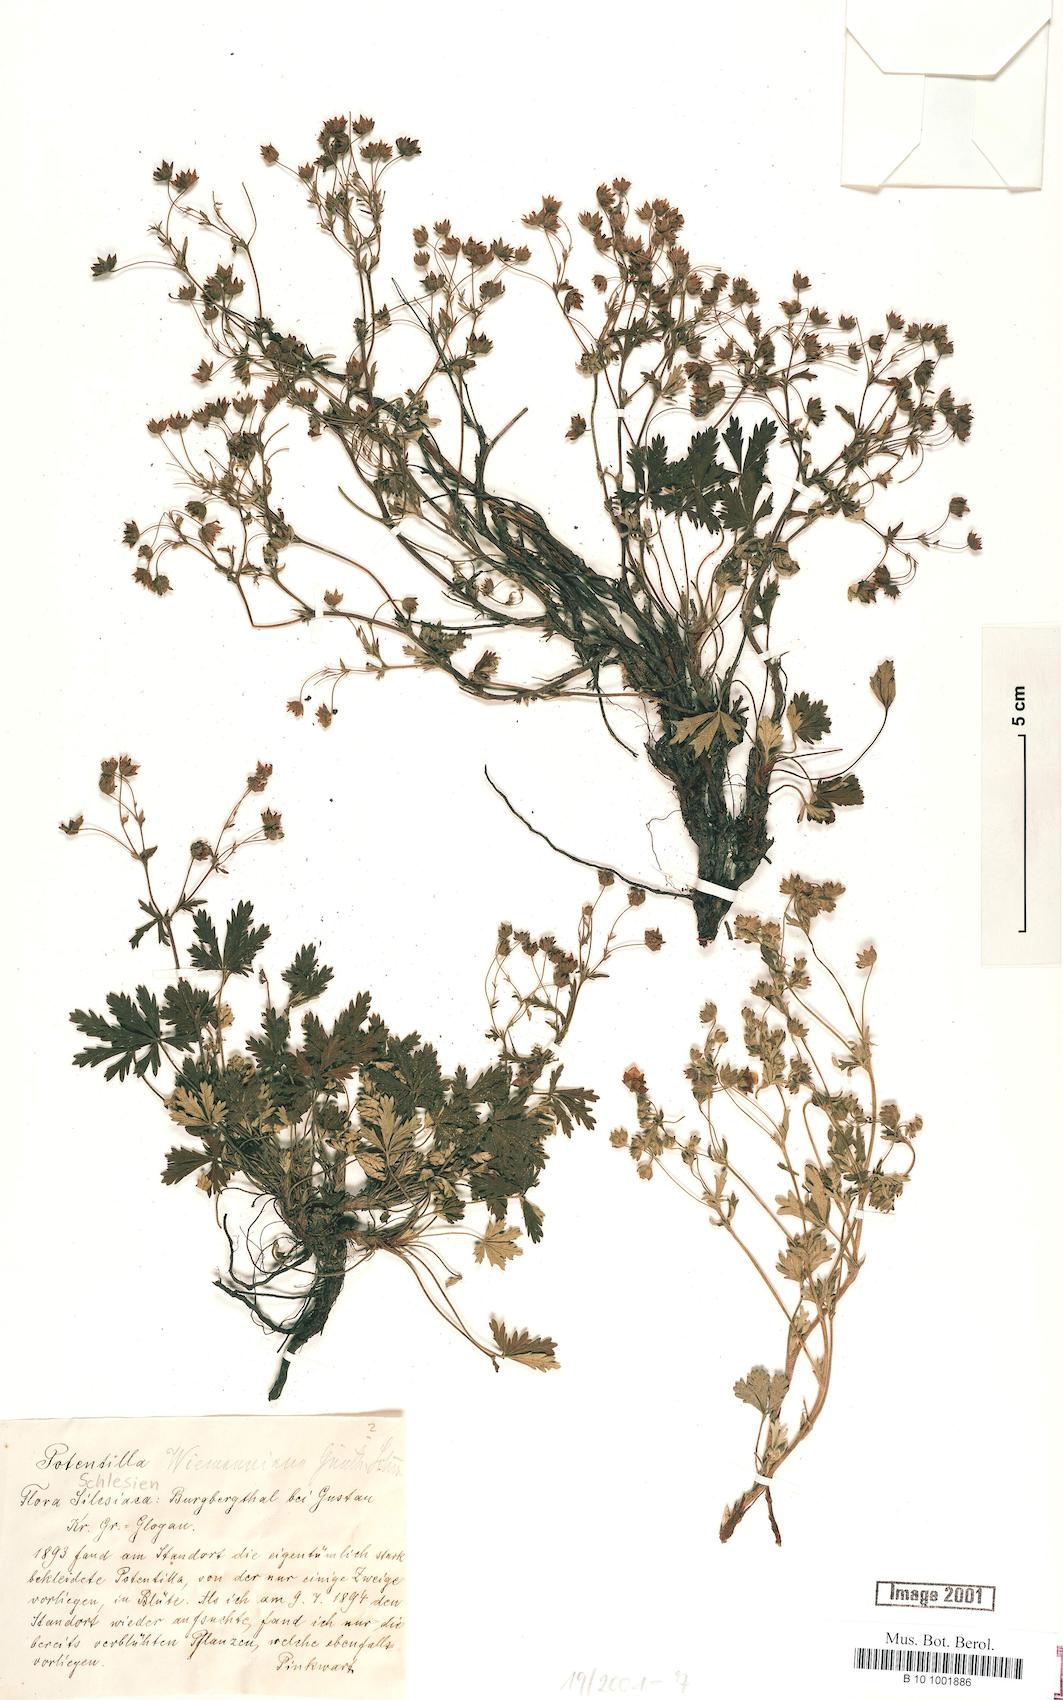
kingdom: Plantae
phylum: Tracheophyta
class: Magnoliopsida
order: Rosales
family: Rosaceae
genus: Potentilla
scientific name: Potentilla
